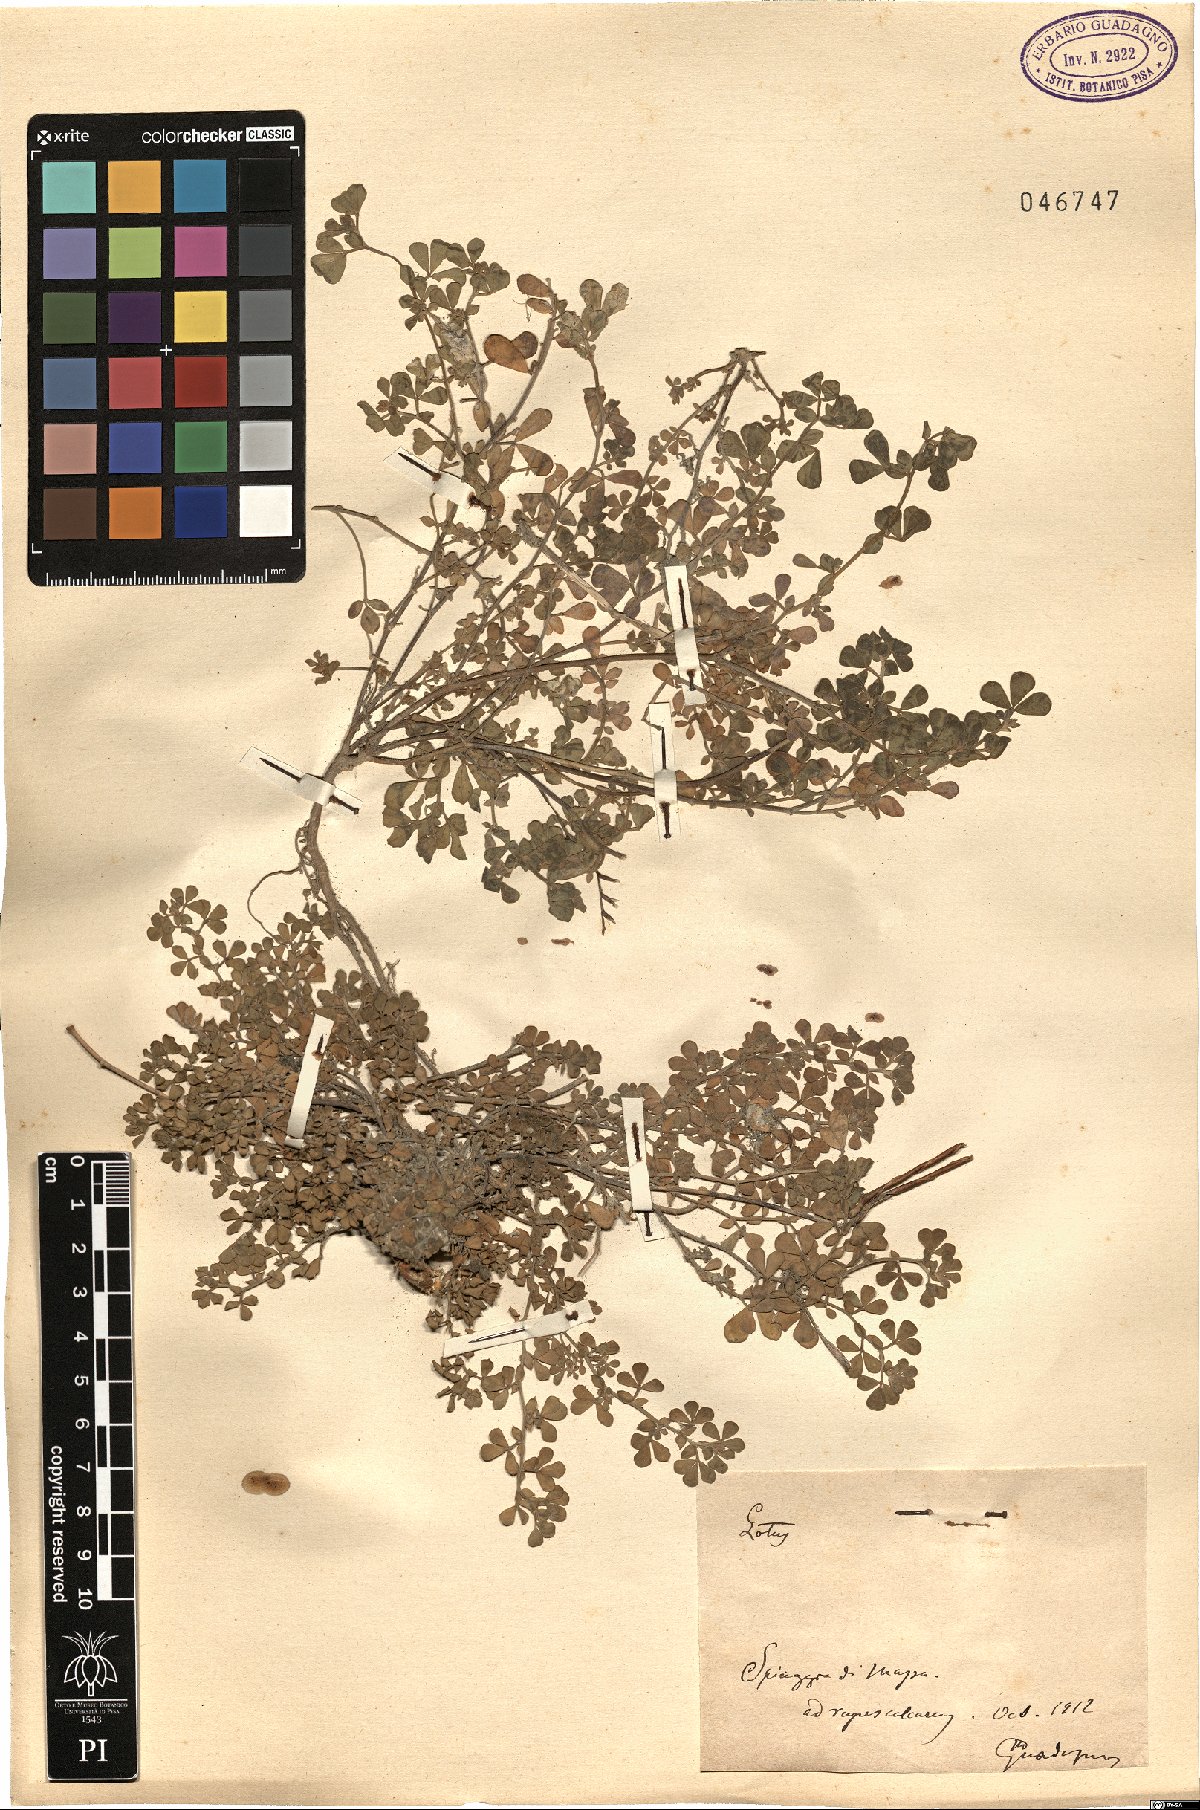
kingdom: Plantae
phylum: Tracheophyta
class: Magnoliopsida
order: Fabales
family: Fabaceae
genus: Lotus
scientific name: Lotus
